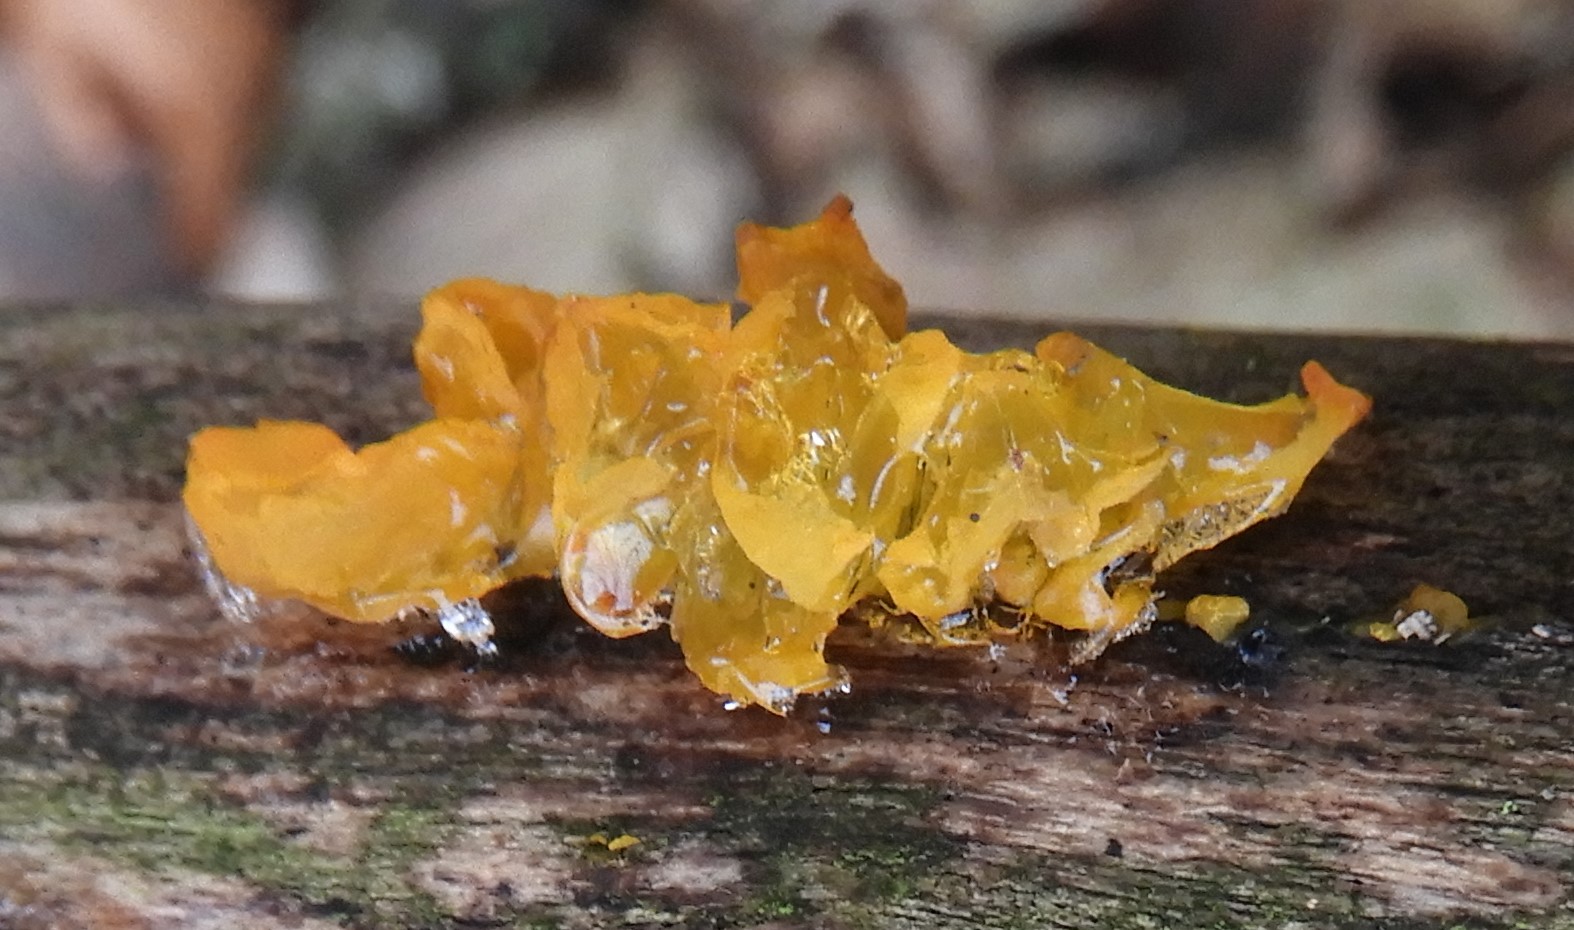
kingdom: Fungi
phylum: Basidiomycota
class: Tremellomycetes
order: Tremellales
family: Tremellaceae
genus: Tremella
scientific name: Tremella mesenterica
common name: gul bævresvamp
